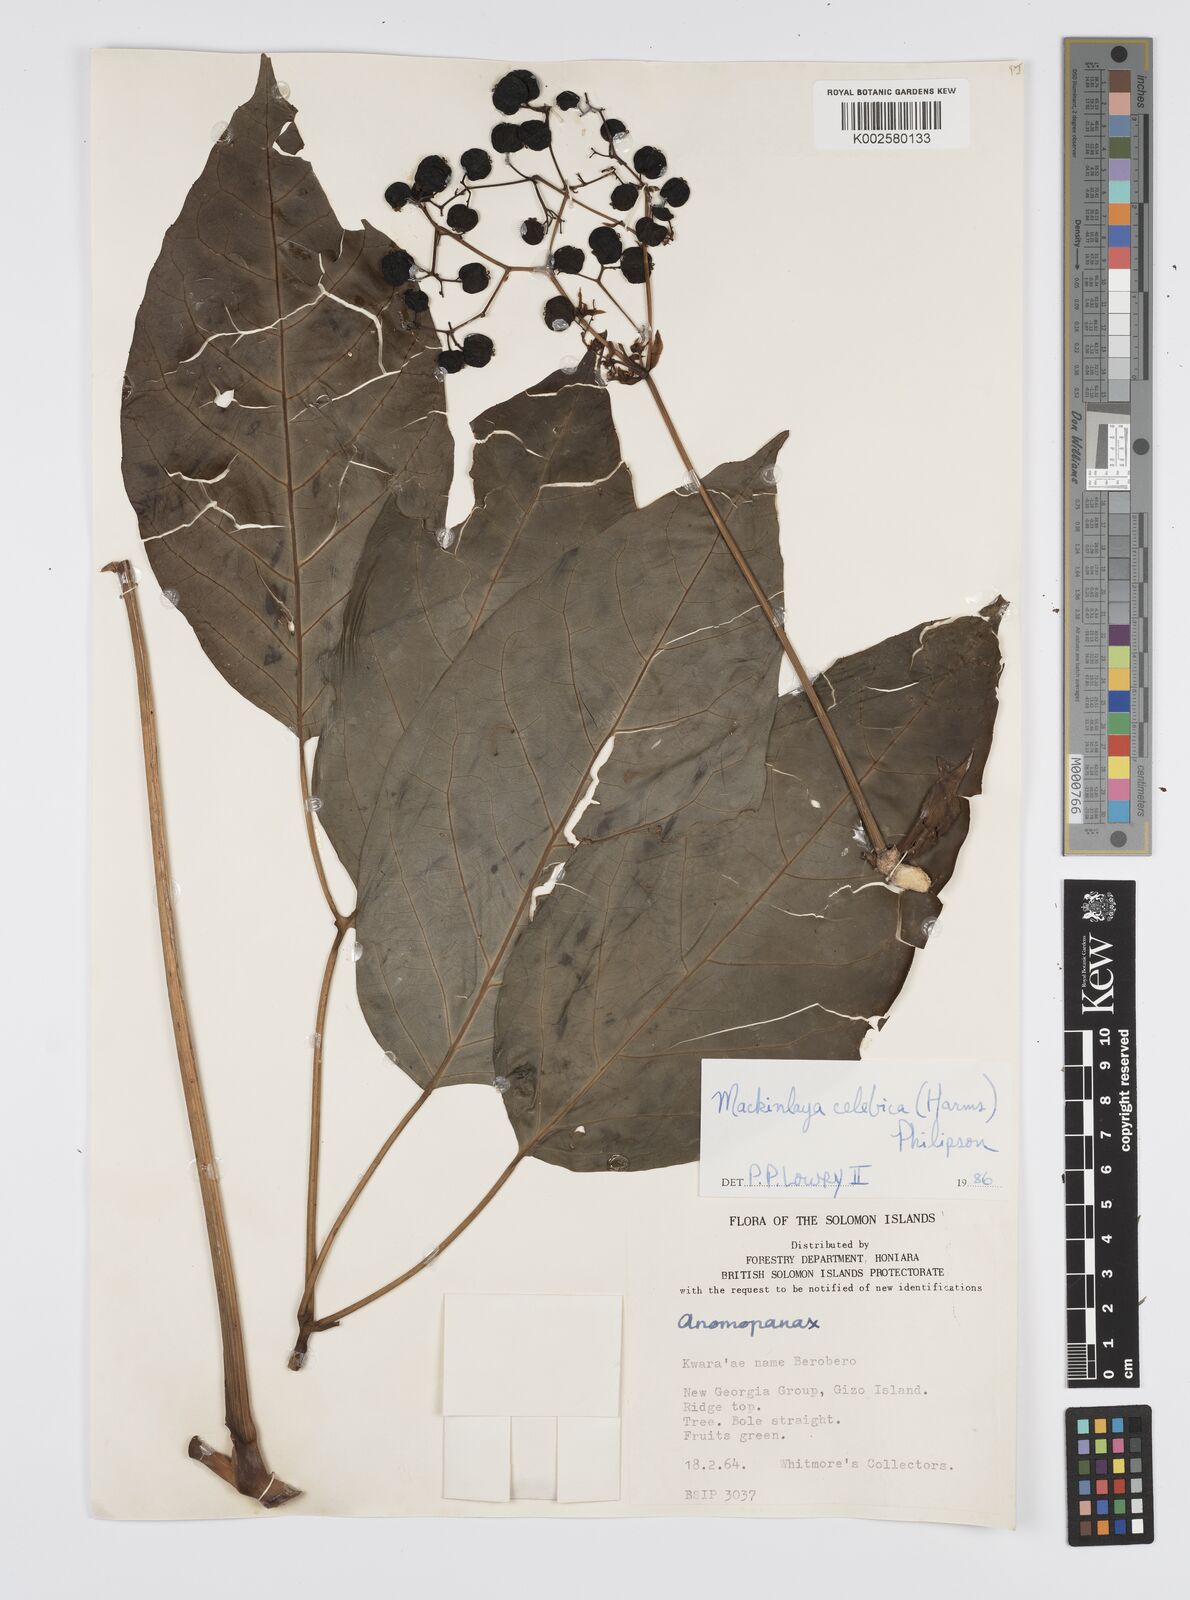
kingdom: Plantae
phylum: Tracheophyta
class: Magnoliopsida
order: Apiales
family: Apiaceae
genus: Mackinlaya
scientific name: Mackinlaya celebica
